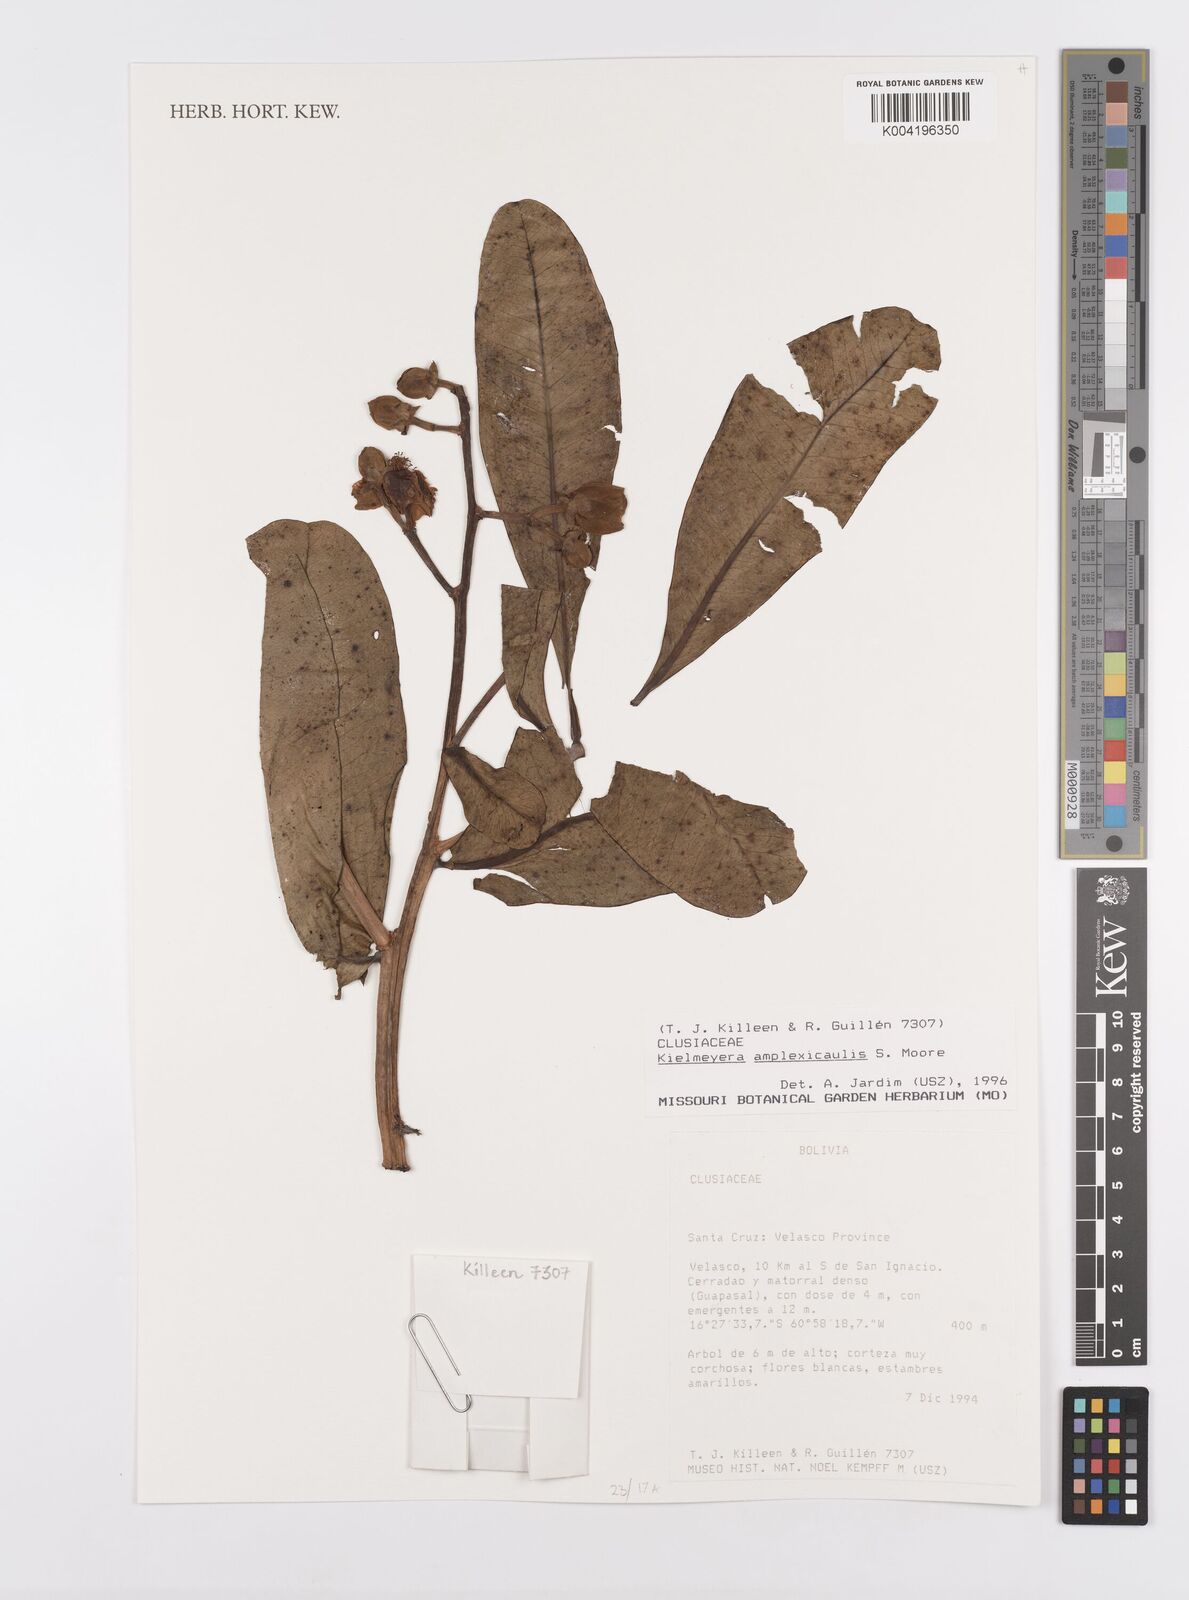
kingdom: Plantae
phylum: Tracheophyta
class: Magnoliopsida
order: Malpighiales
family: Calophyllaceae
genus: Kielmeyera
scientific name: Kielmeyera coriacea
